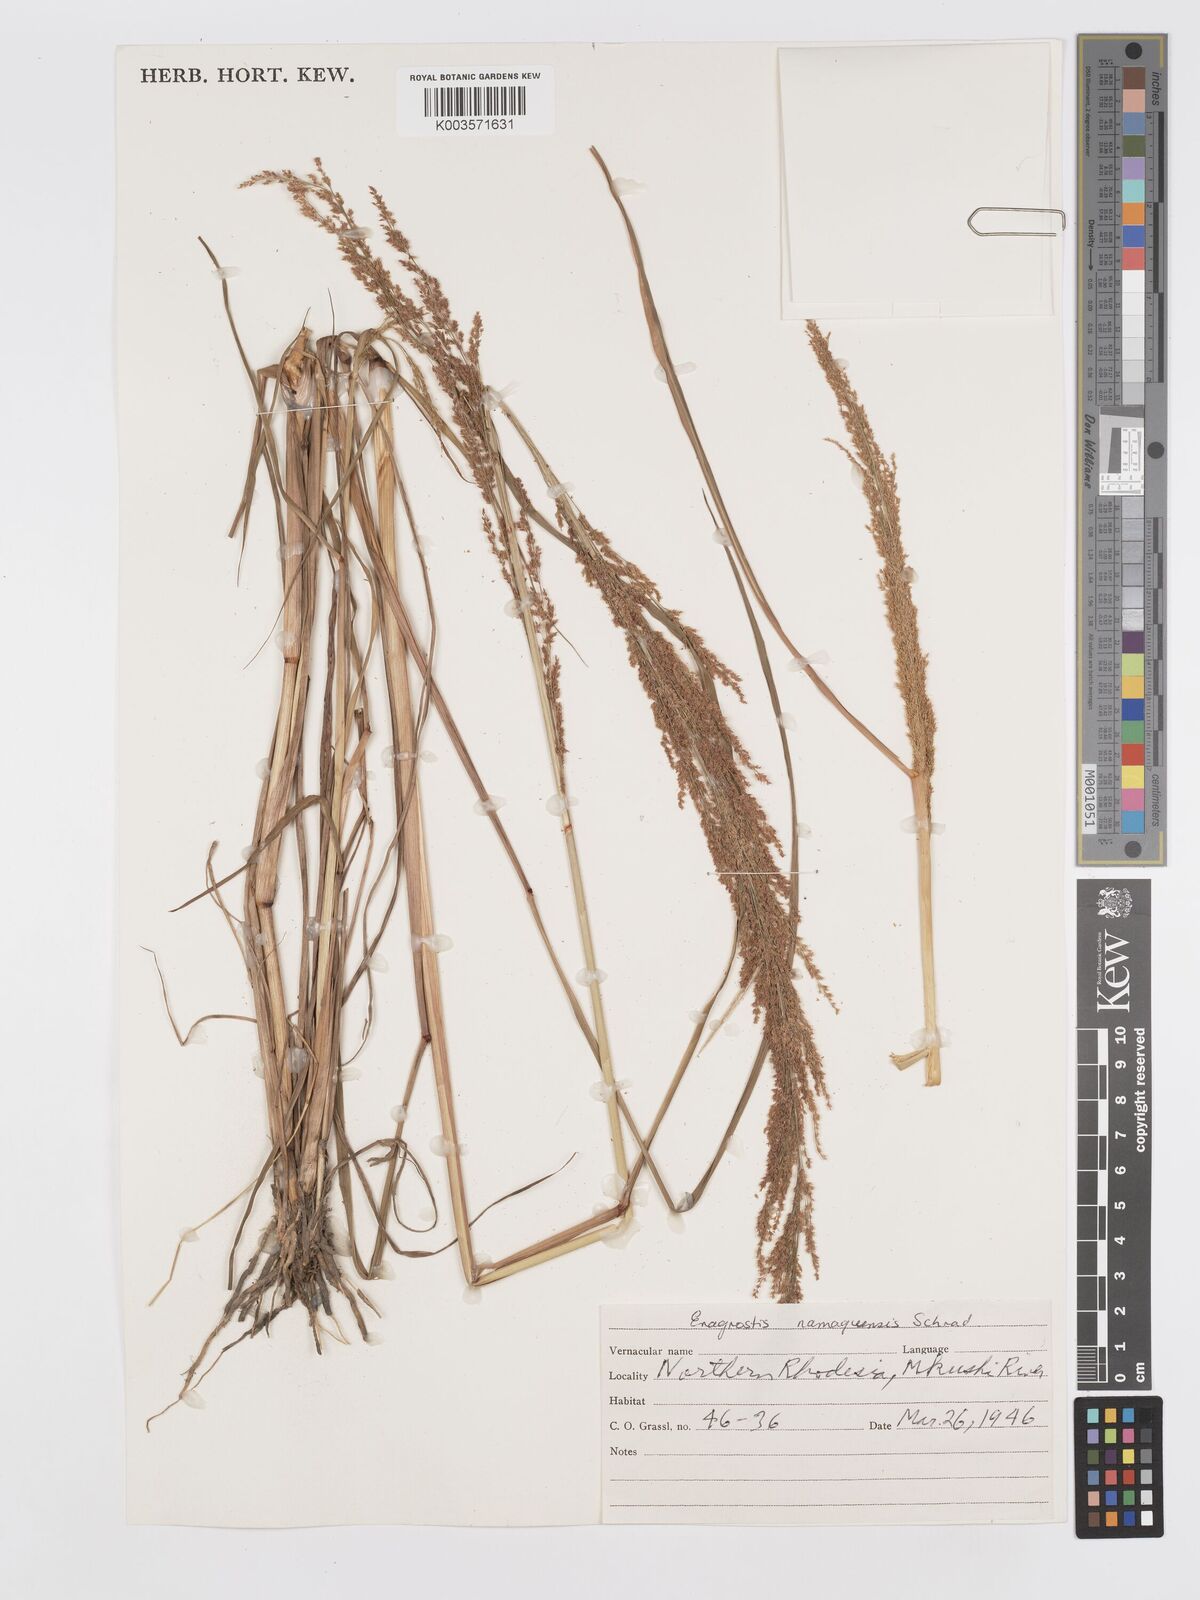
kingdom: Plantae
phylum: Tracheophyta
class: Liliopsida
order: Poales
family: Poaceae
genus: Eragrostis
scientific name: Eragrostis japonica
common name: Pond lovegrass
